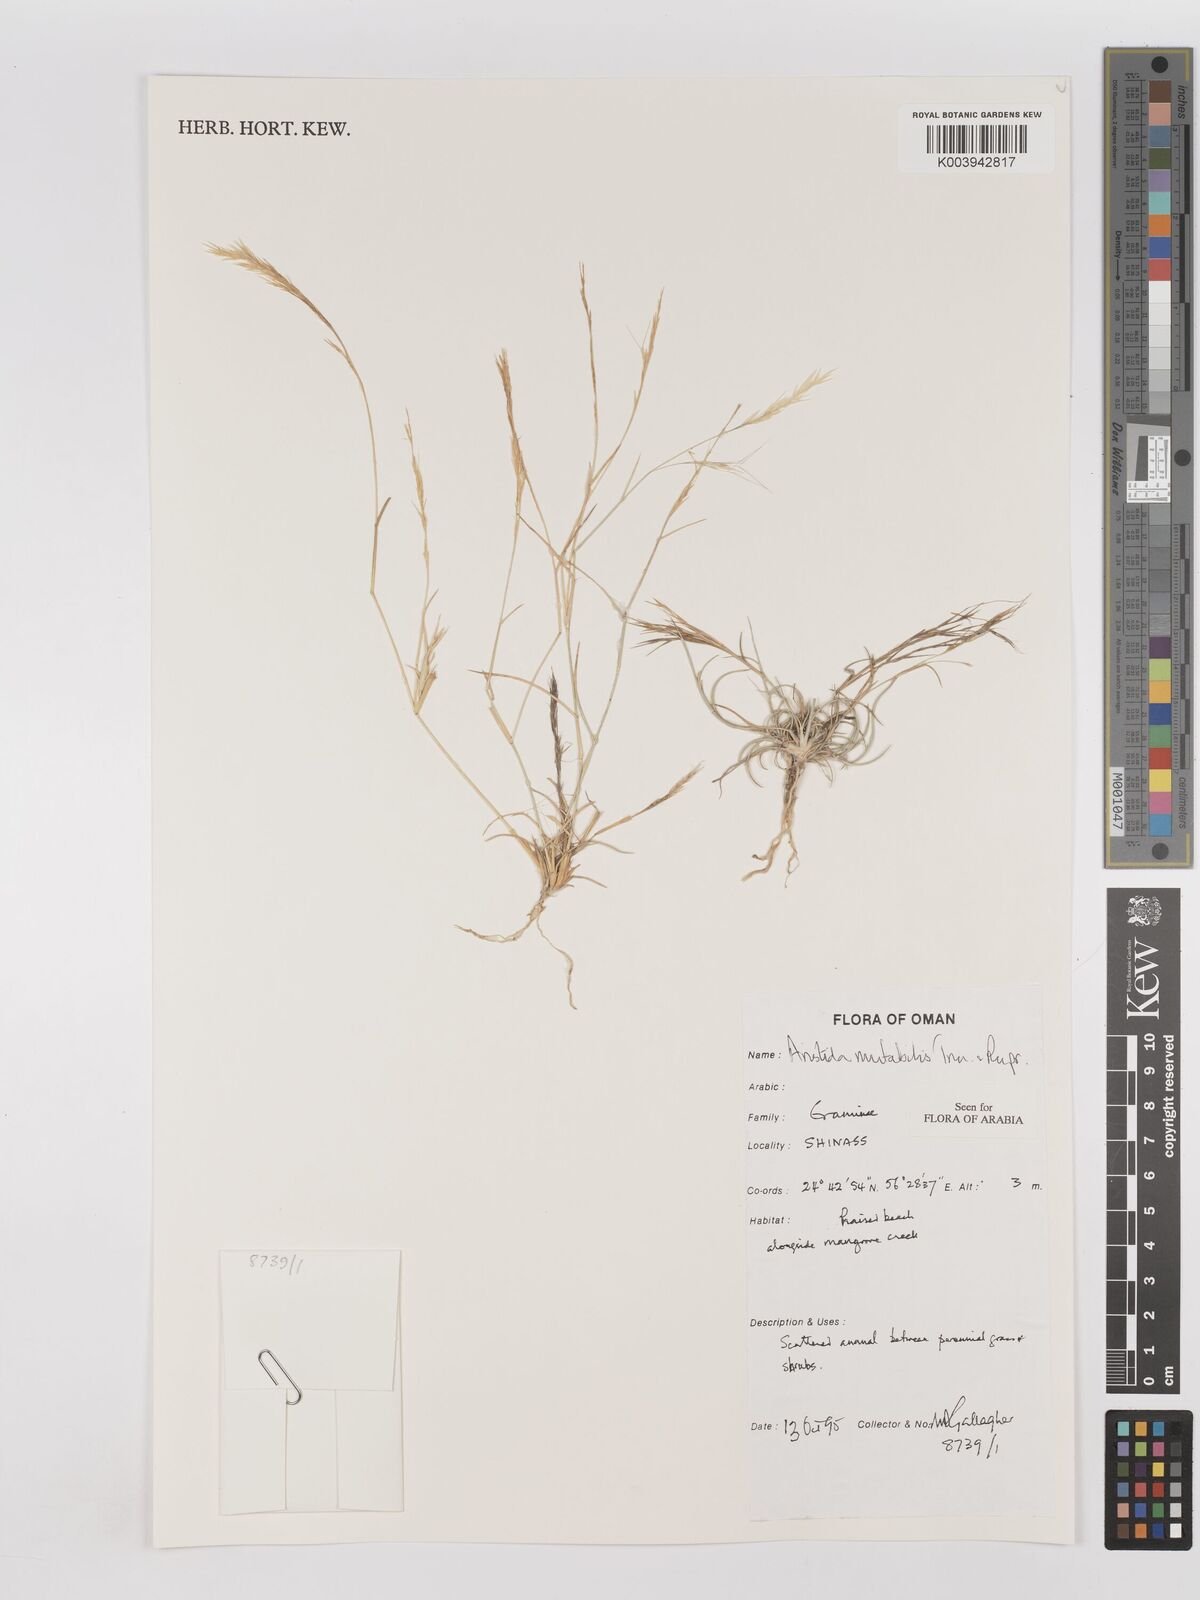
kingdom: Plantae
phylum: Tracheophyta
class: Liliopsida
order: Poales
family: Poaceae
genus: Aristida
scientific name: Aristida mutabilis
